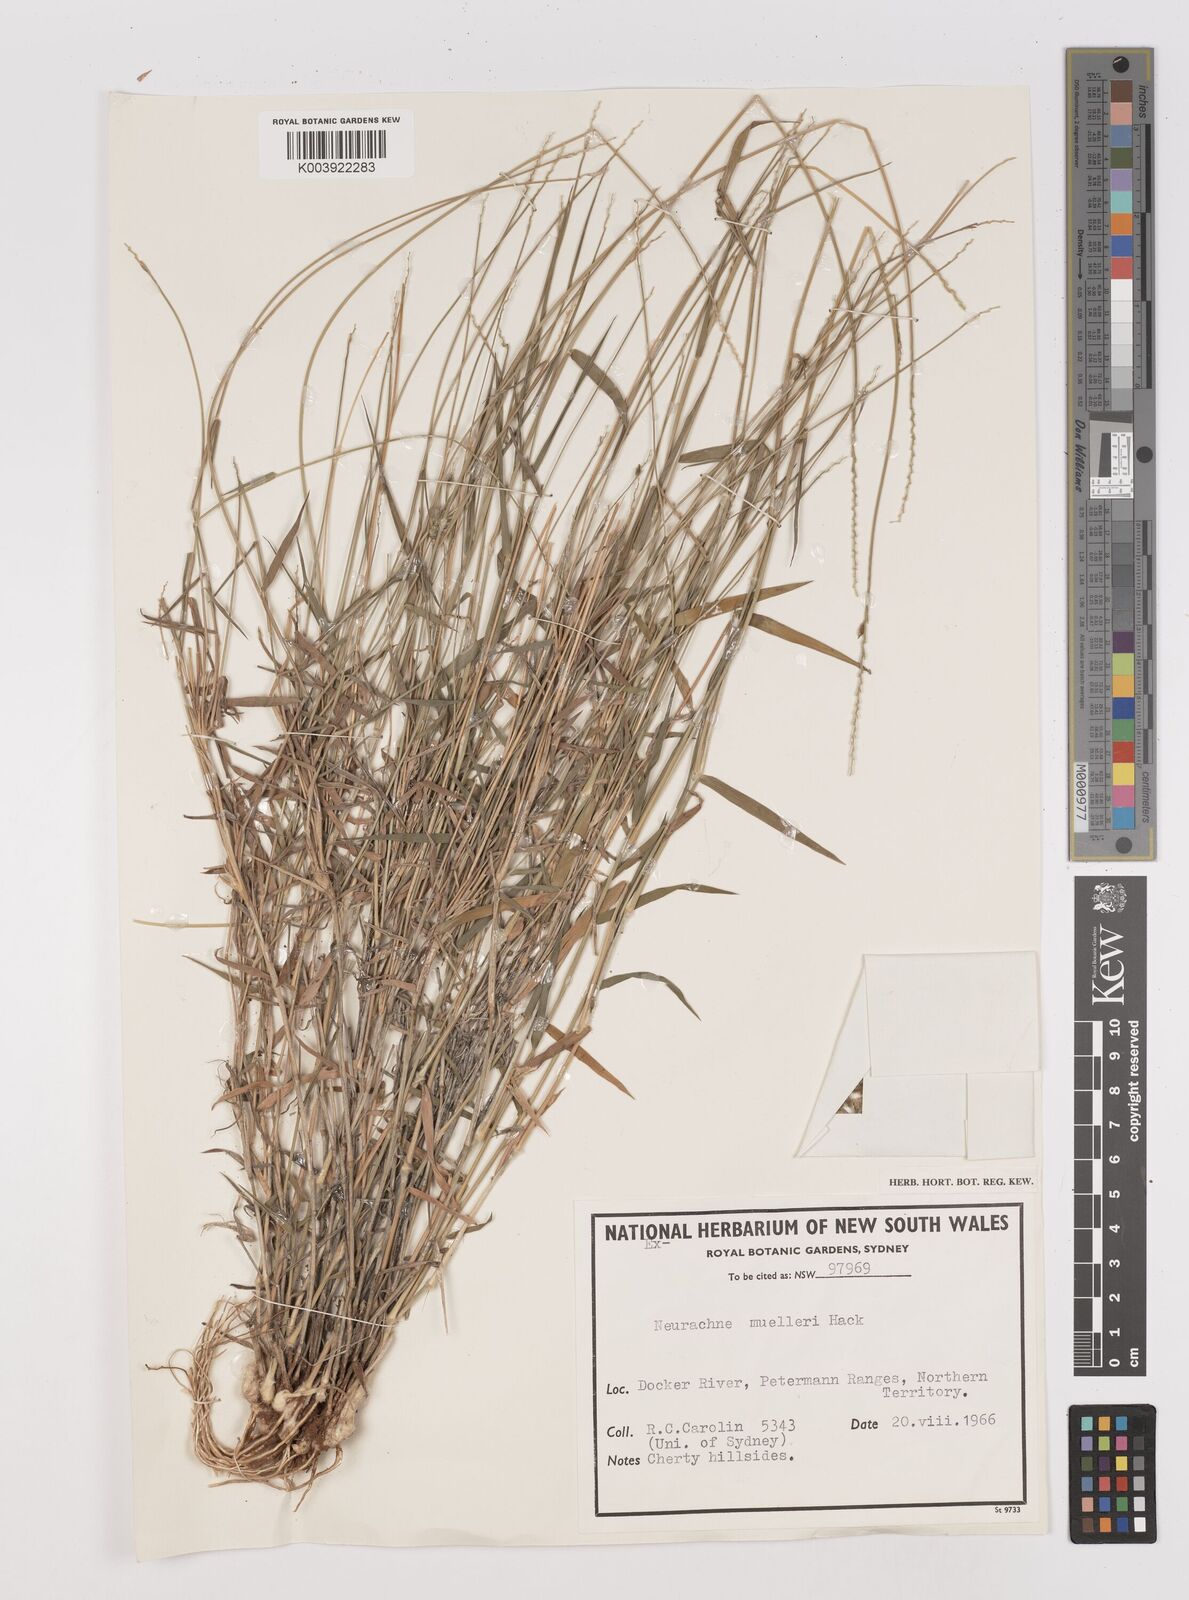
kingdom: Plantae
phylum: Tracheophyta
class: Liliopsida
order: Poales
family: Poaceae
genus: Neurachne
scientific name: Neurachne muelleri
